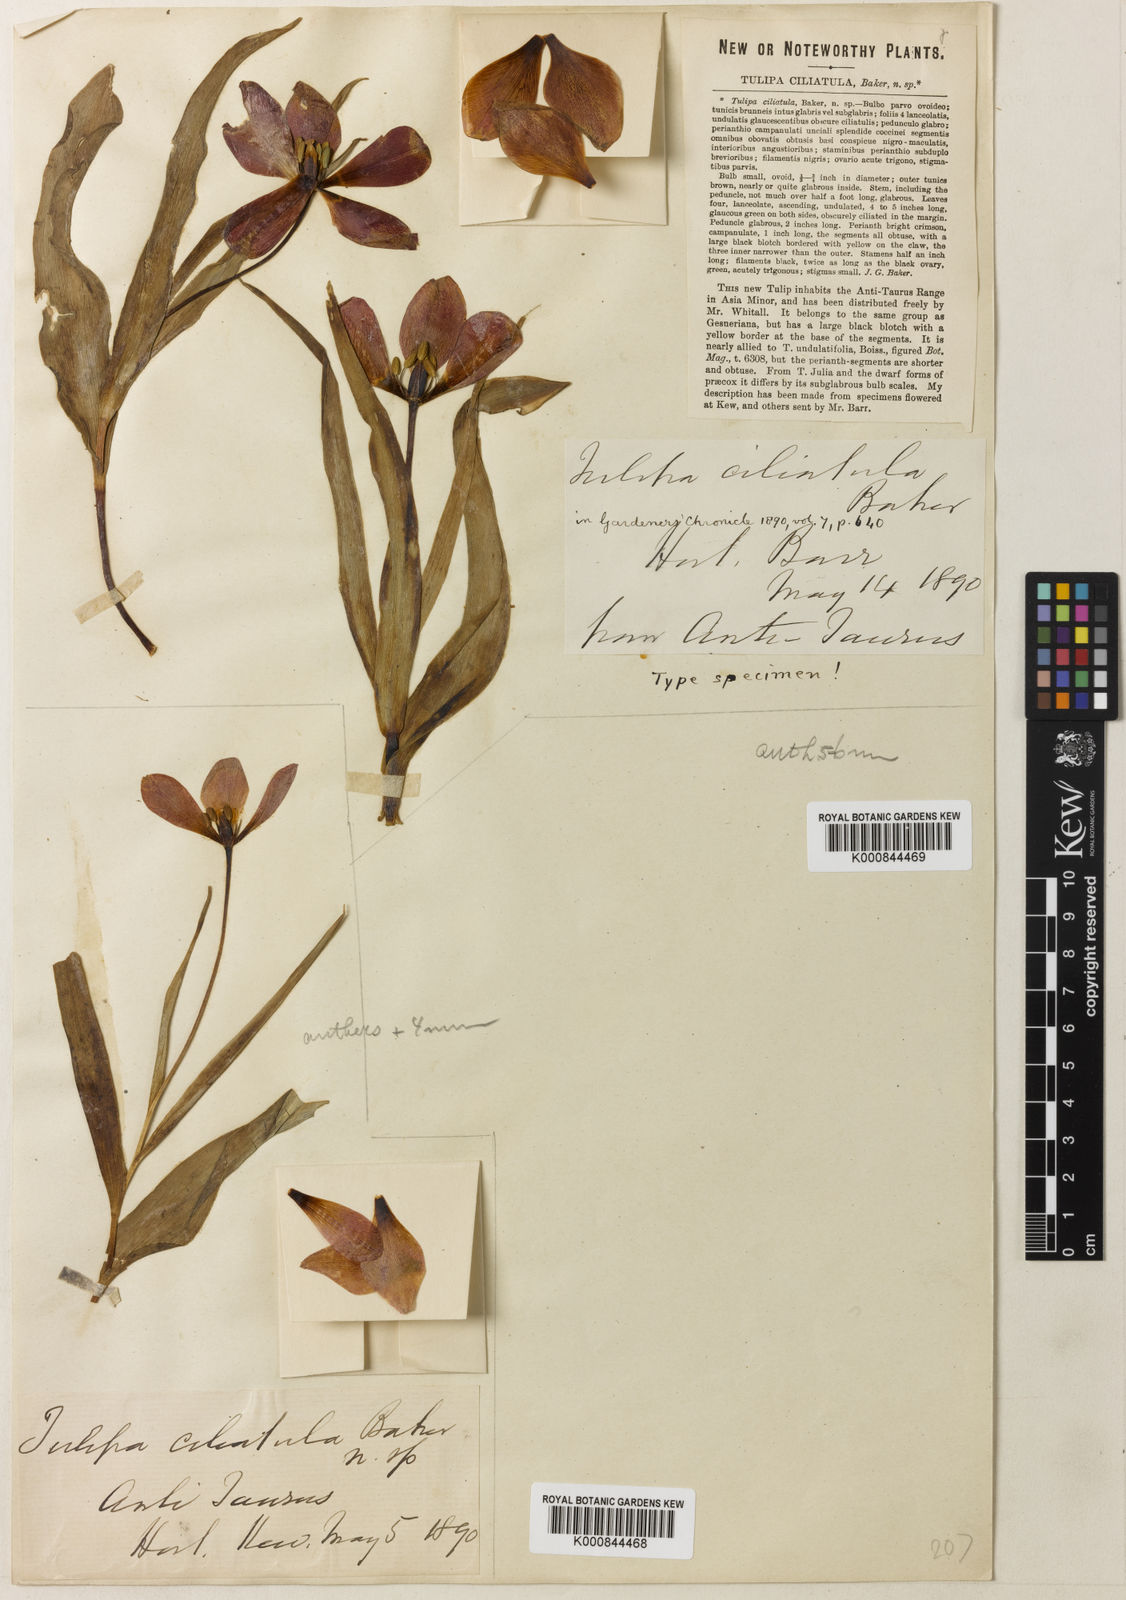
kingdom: Plantae
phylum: Tracheophyta
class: Liliopsida
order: Liliales
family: Liliaceae
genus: Tulipa
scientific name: Tulipa foliosa
